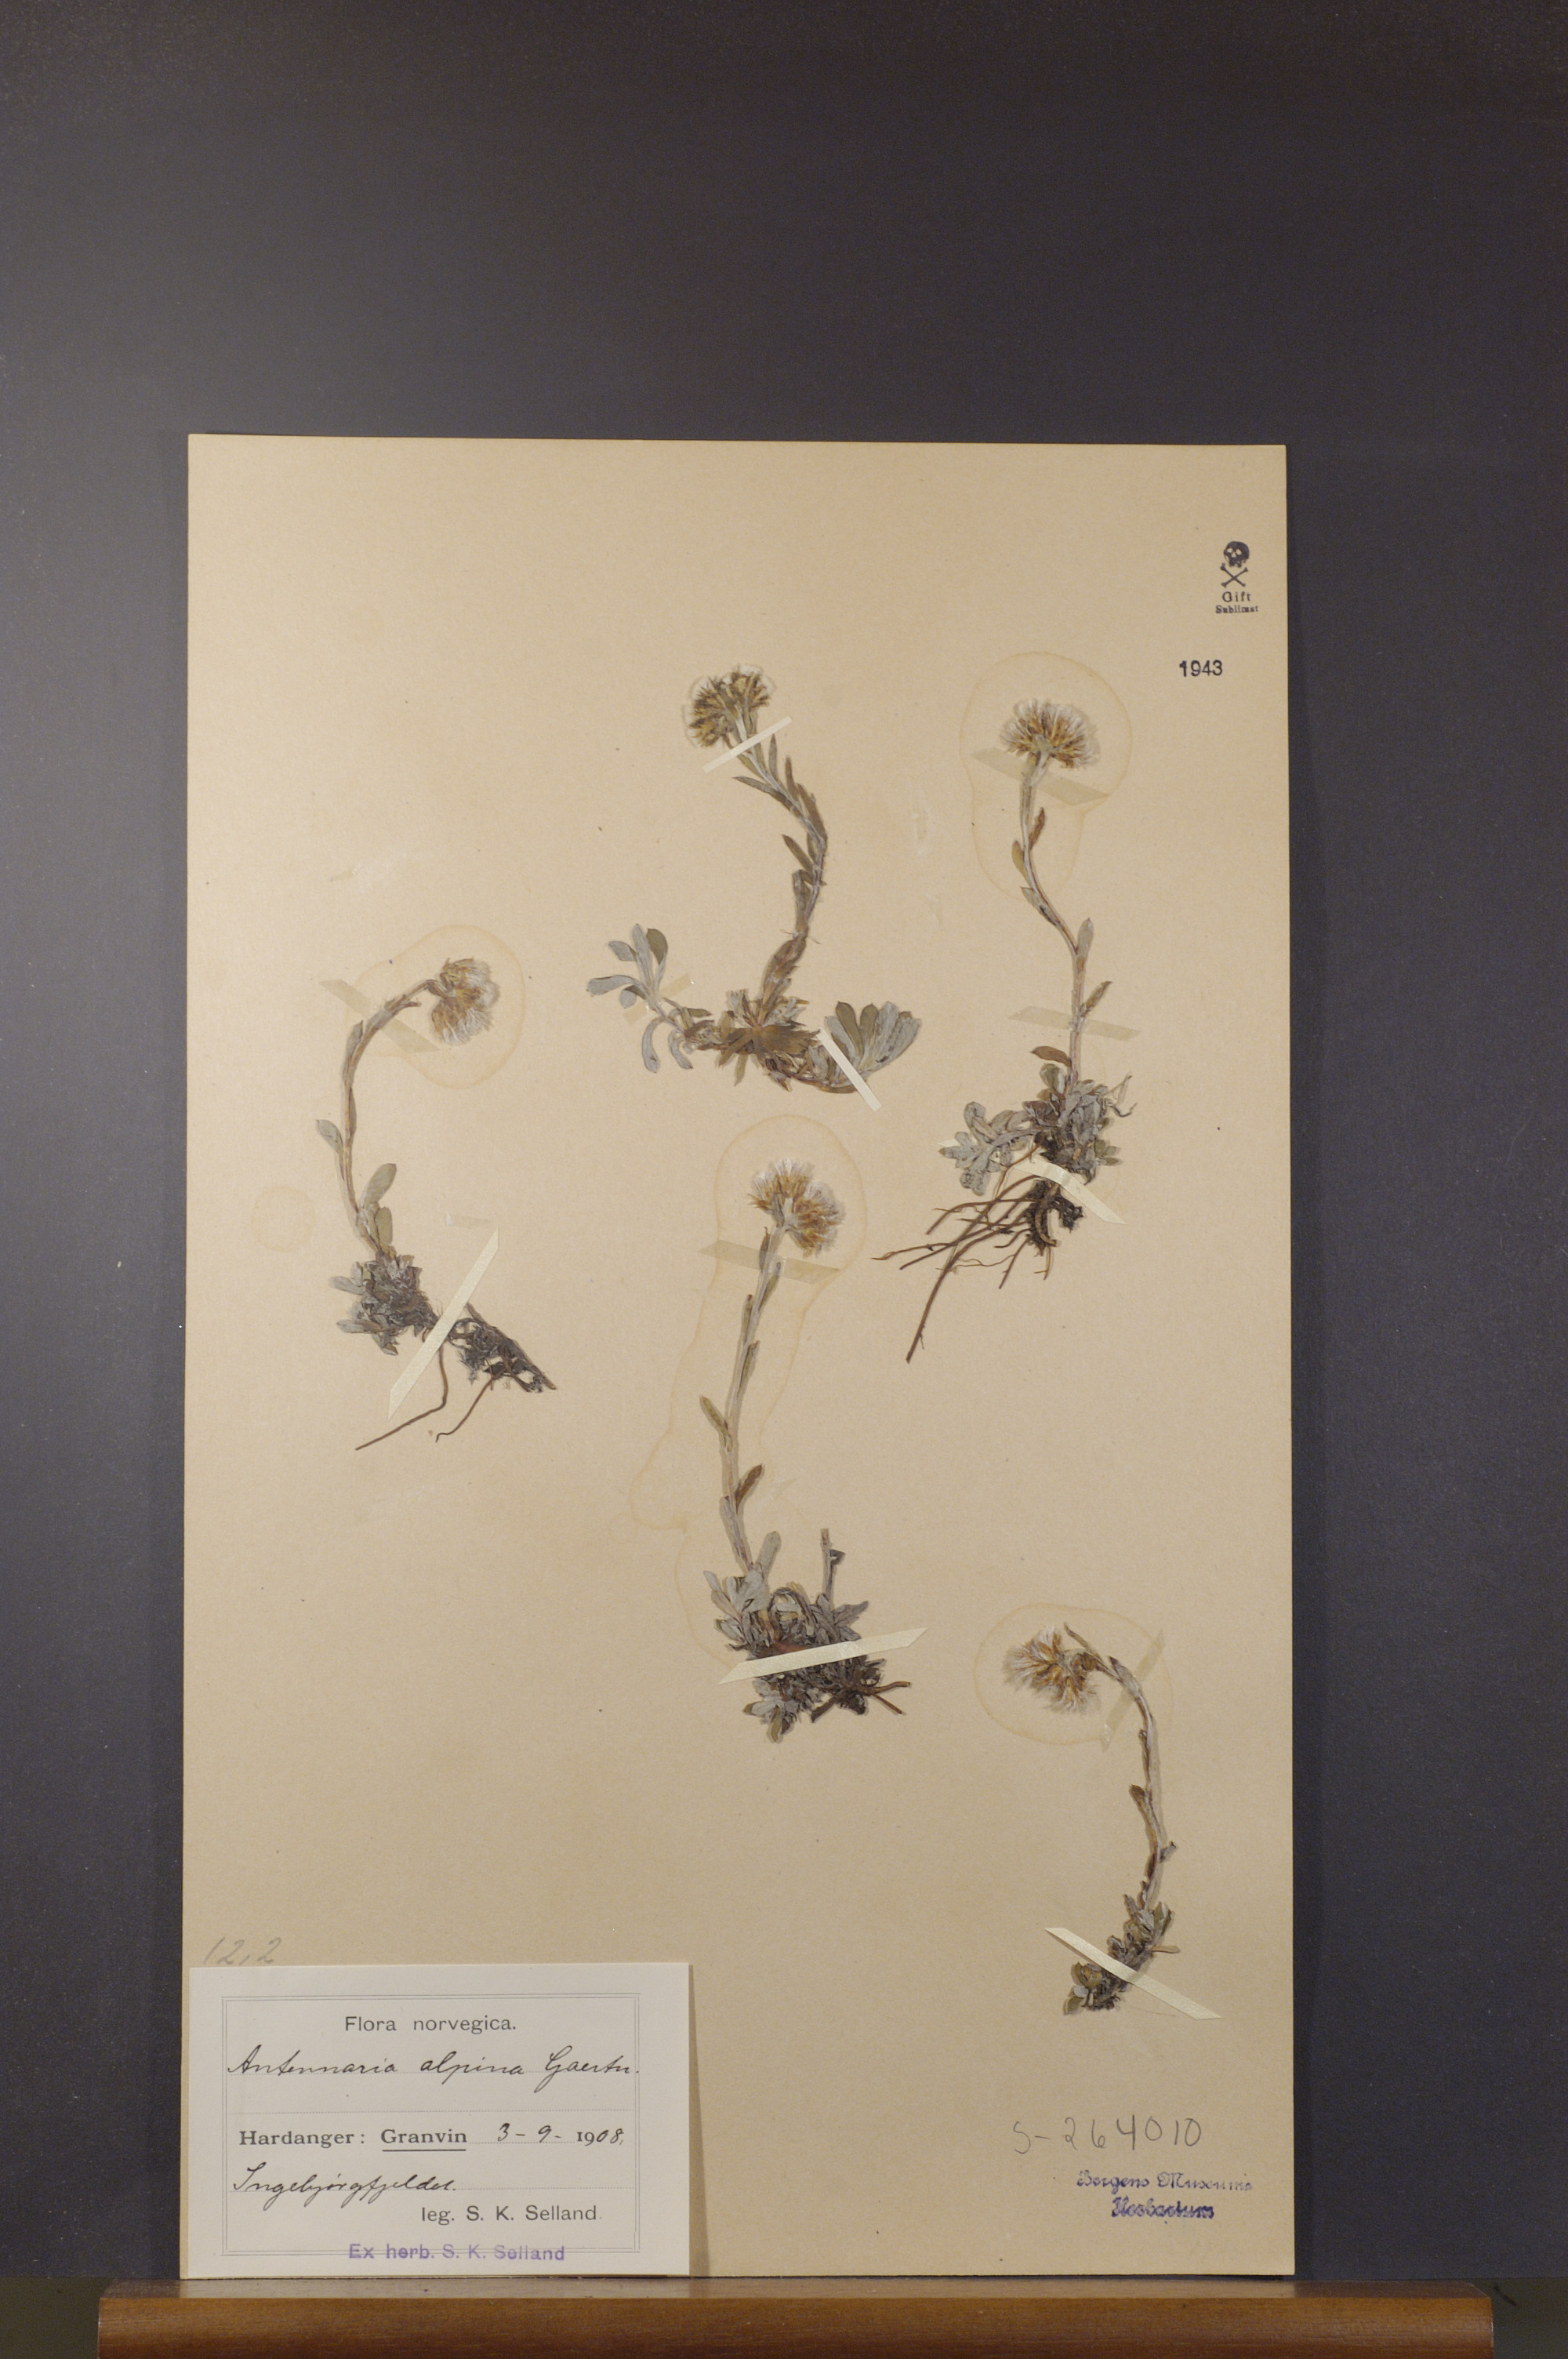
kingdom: Plantae
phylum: Tracheophyta
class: Magnoliopsida
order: Asterales
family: Asteraceae
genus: Antennaria
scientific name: Antennaria alpina
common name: Alpine pussytoes
